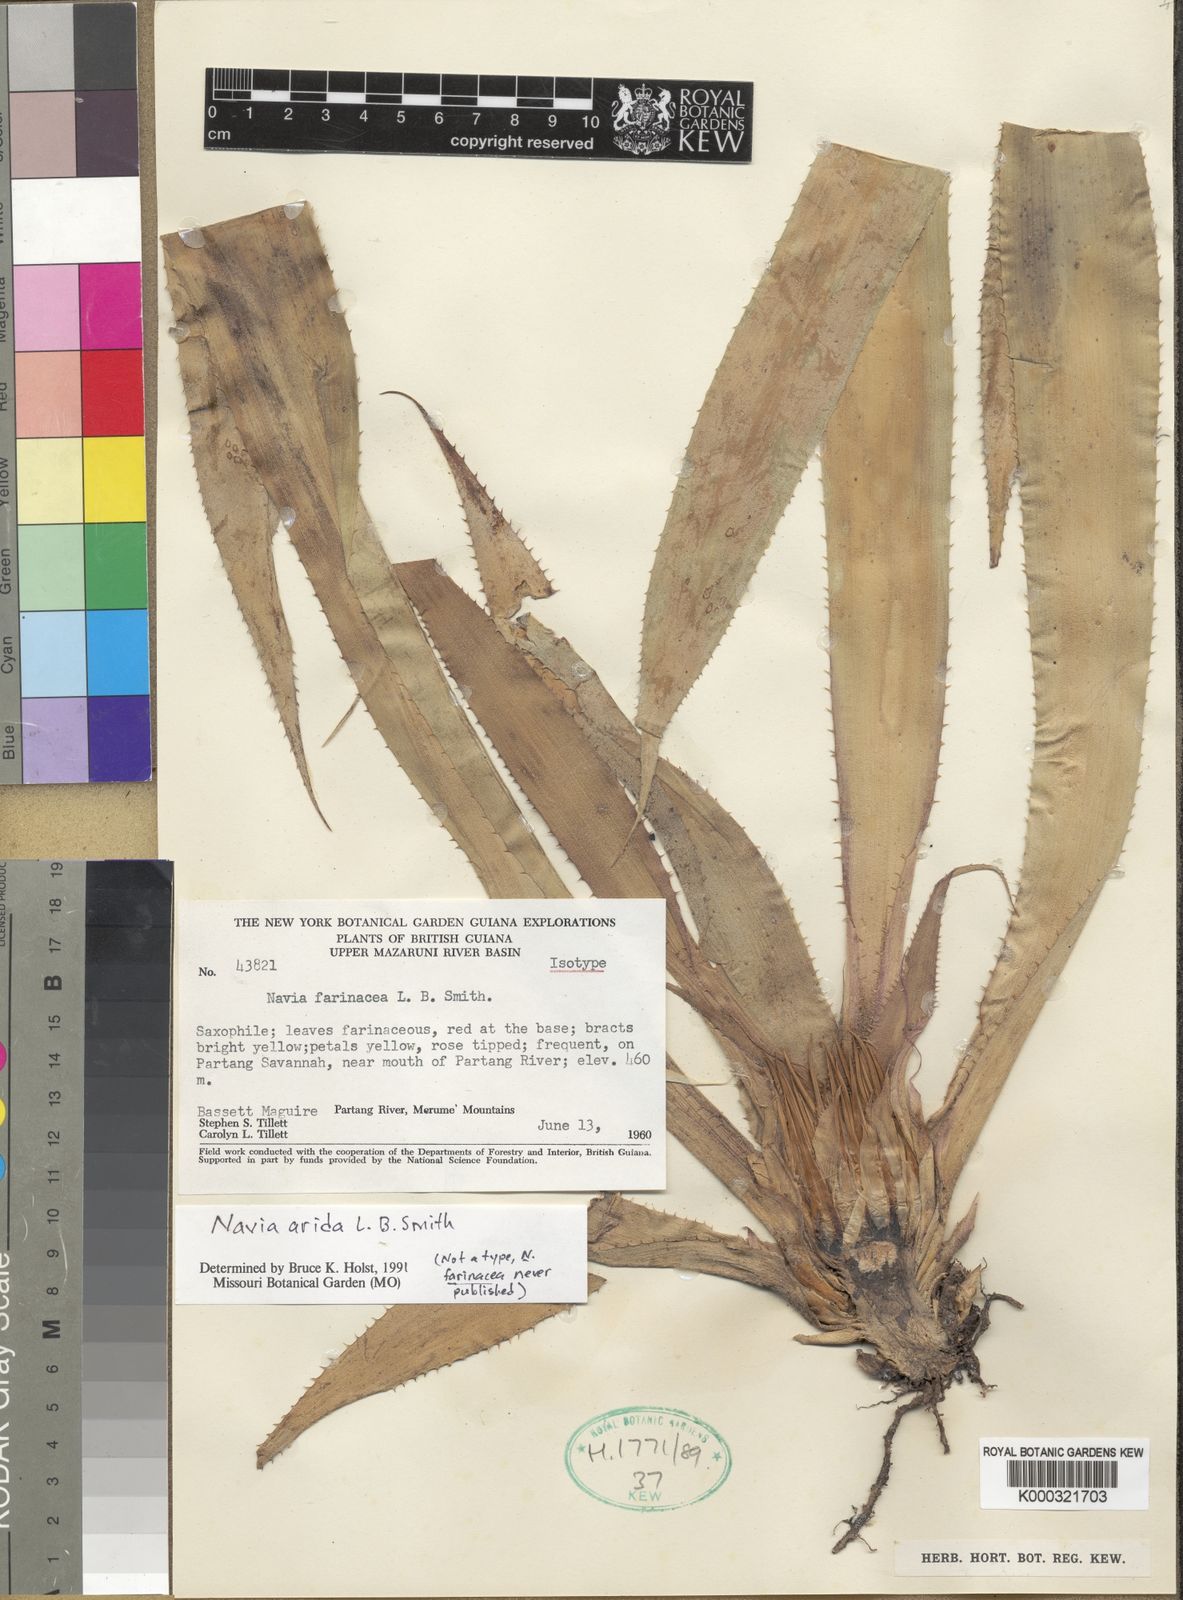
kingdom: Plantae
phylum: Tracheophyta
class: Liliopsida
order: Poales
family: Bromeliaceae
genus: Navia
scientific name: Navia arida
